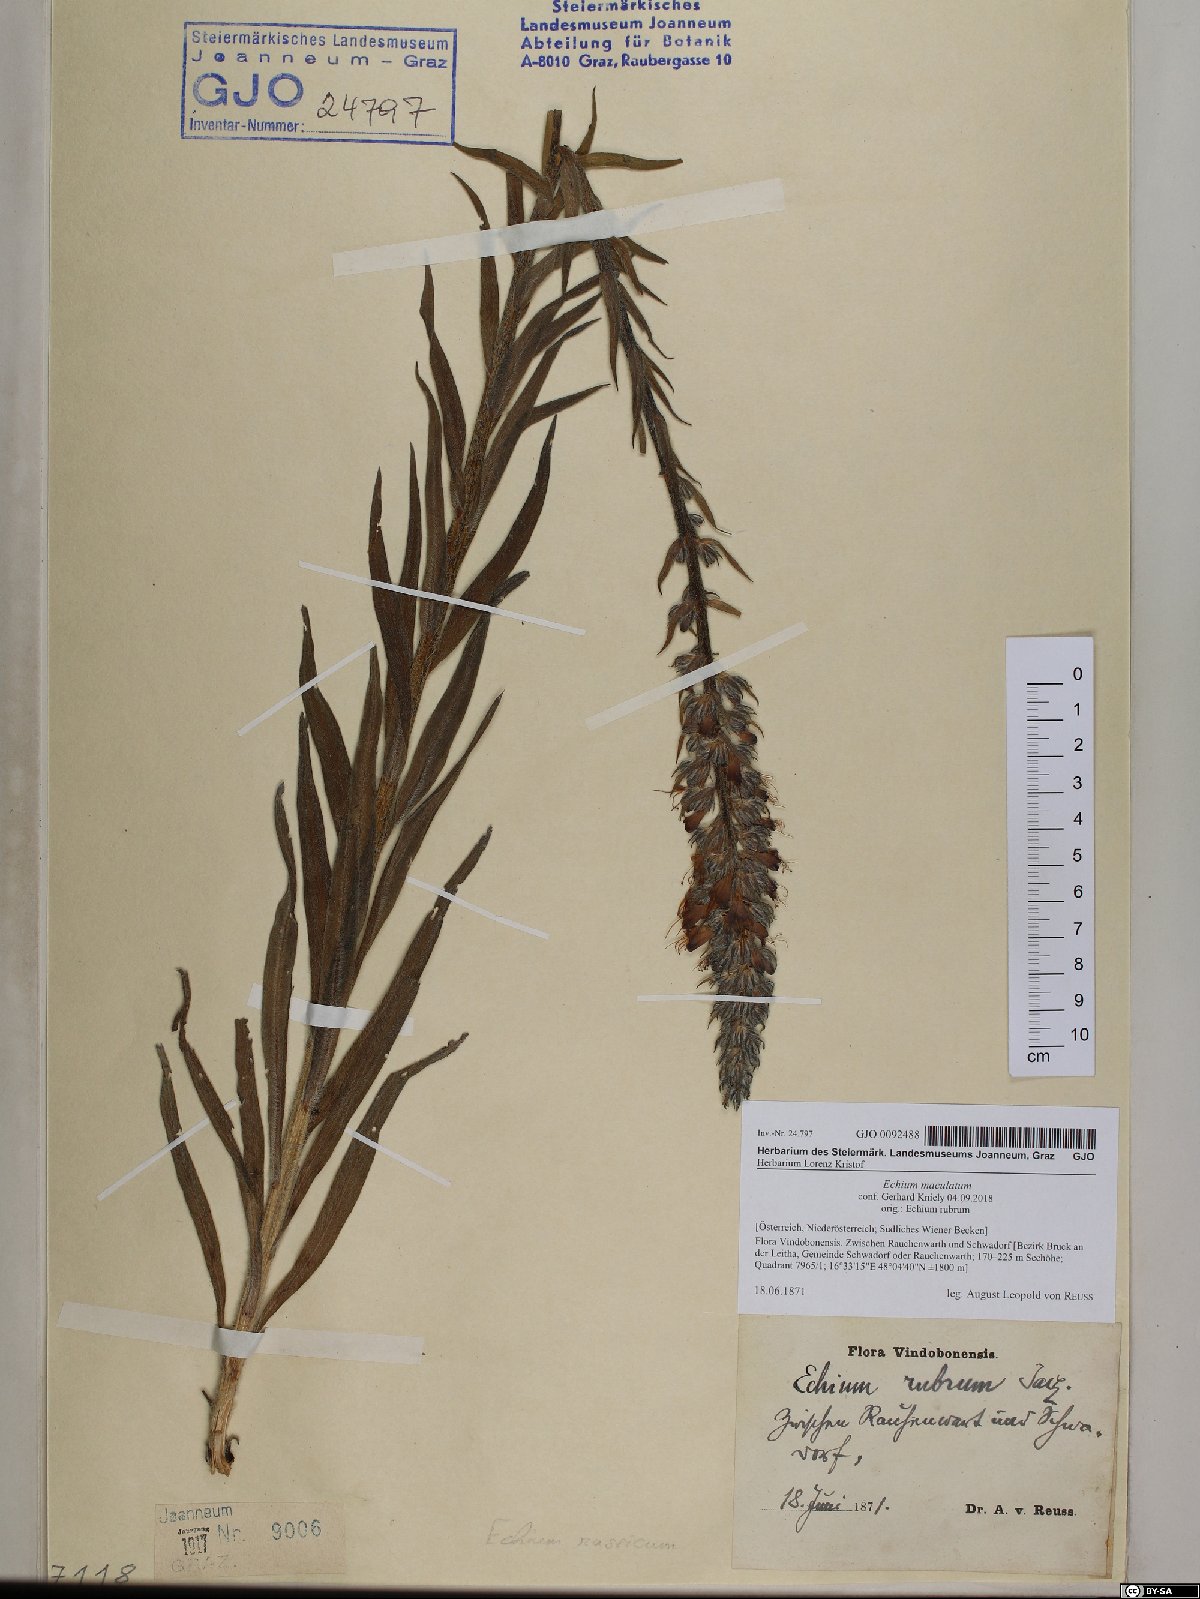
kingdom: Plantae
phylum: Tracheophyta
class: Magnoliopsida
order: Boraginales
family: Boraginaceae
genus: Pontechium
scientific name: Pontechium maculatum
